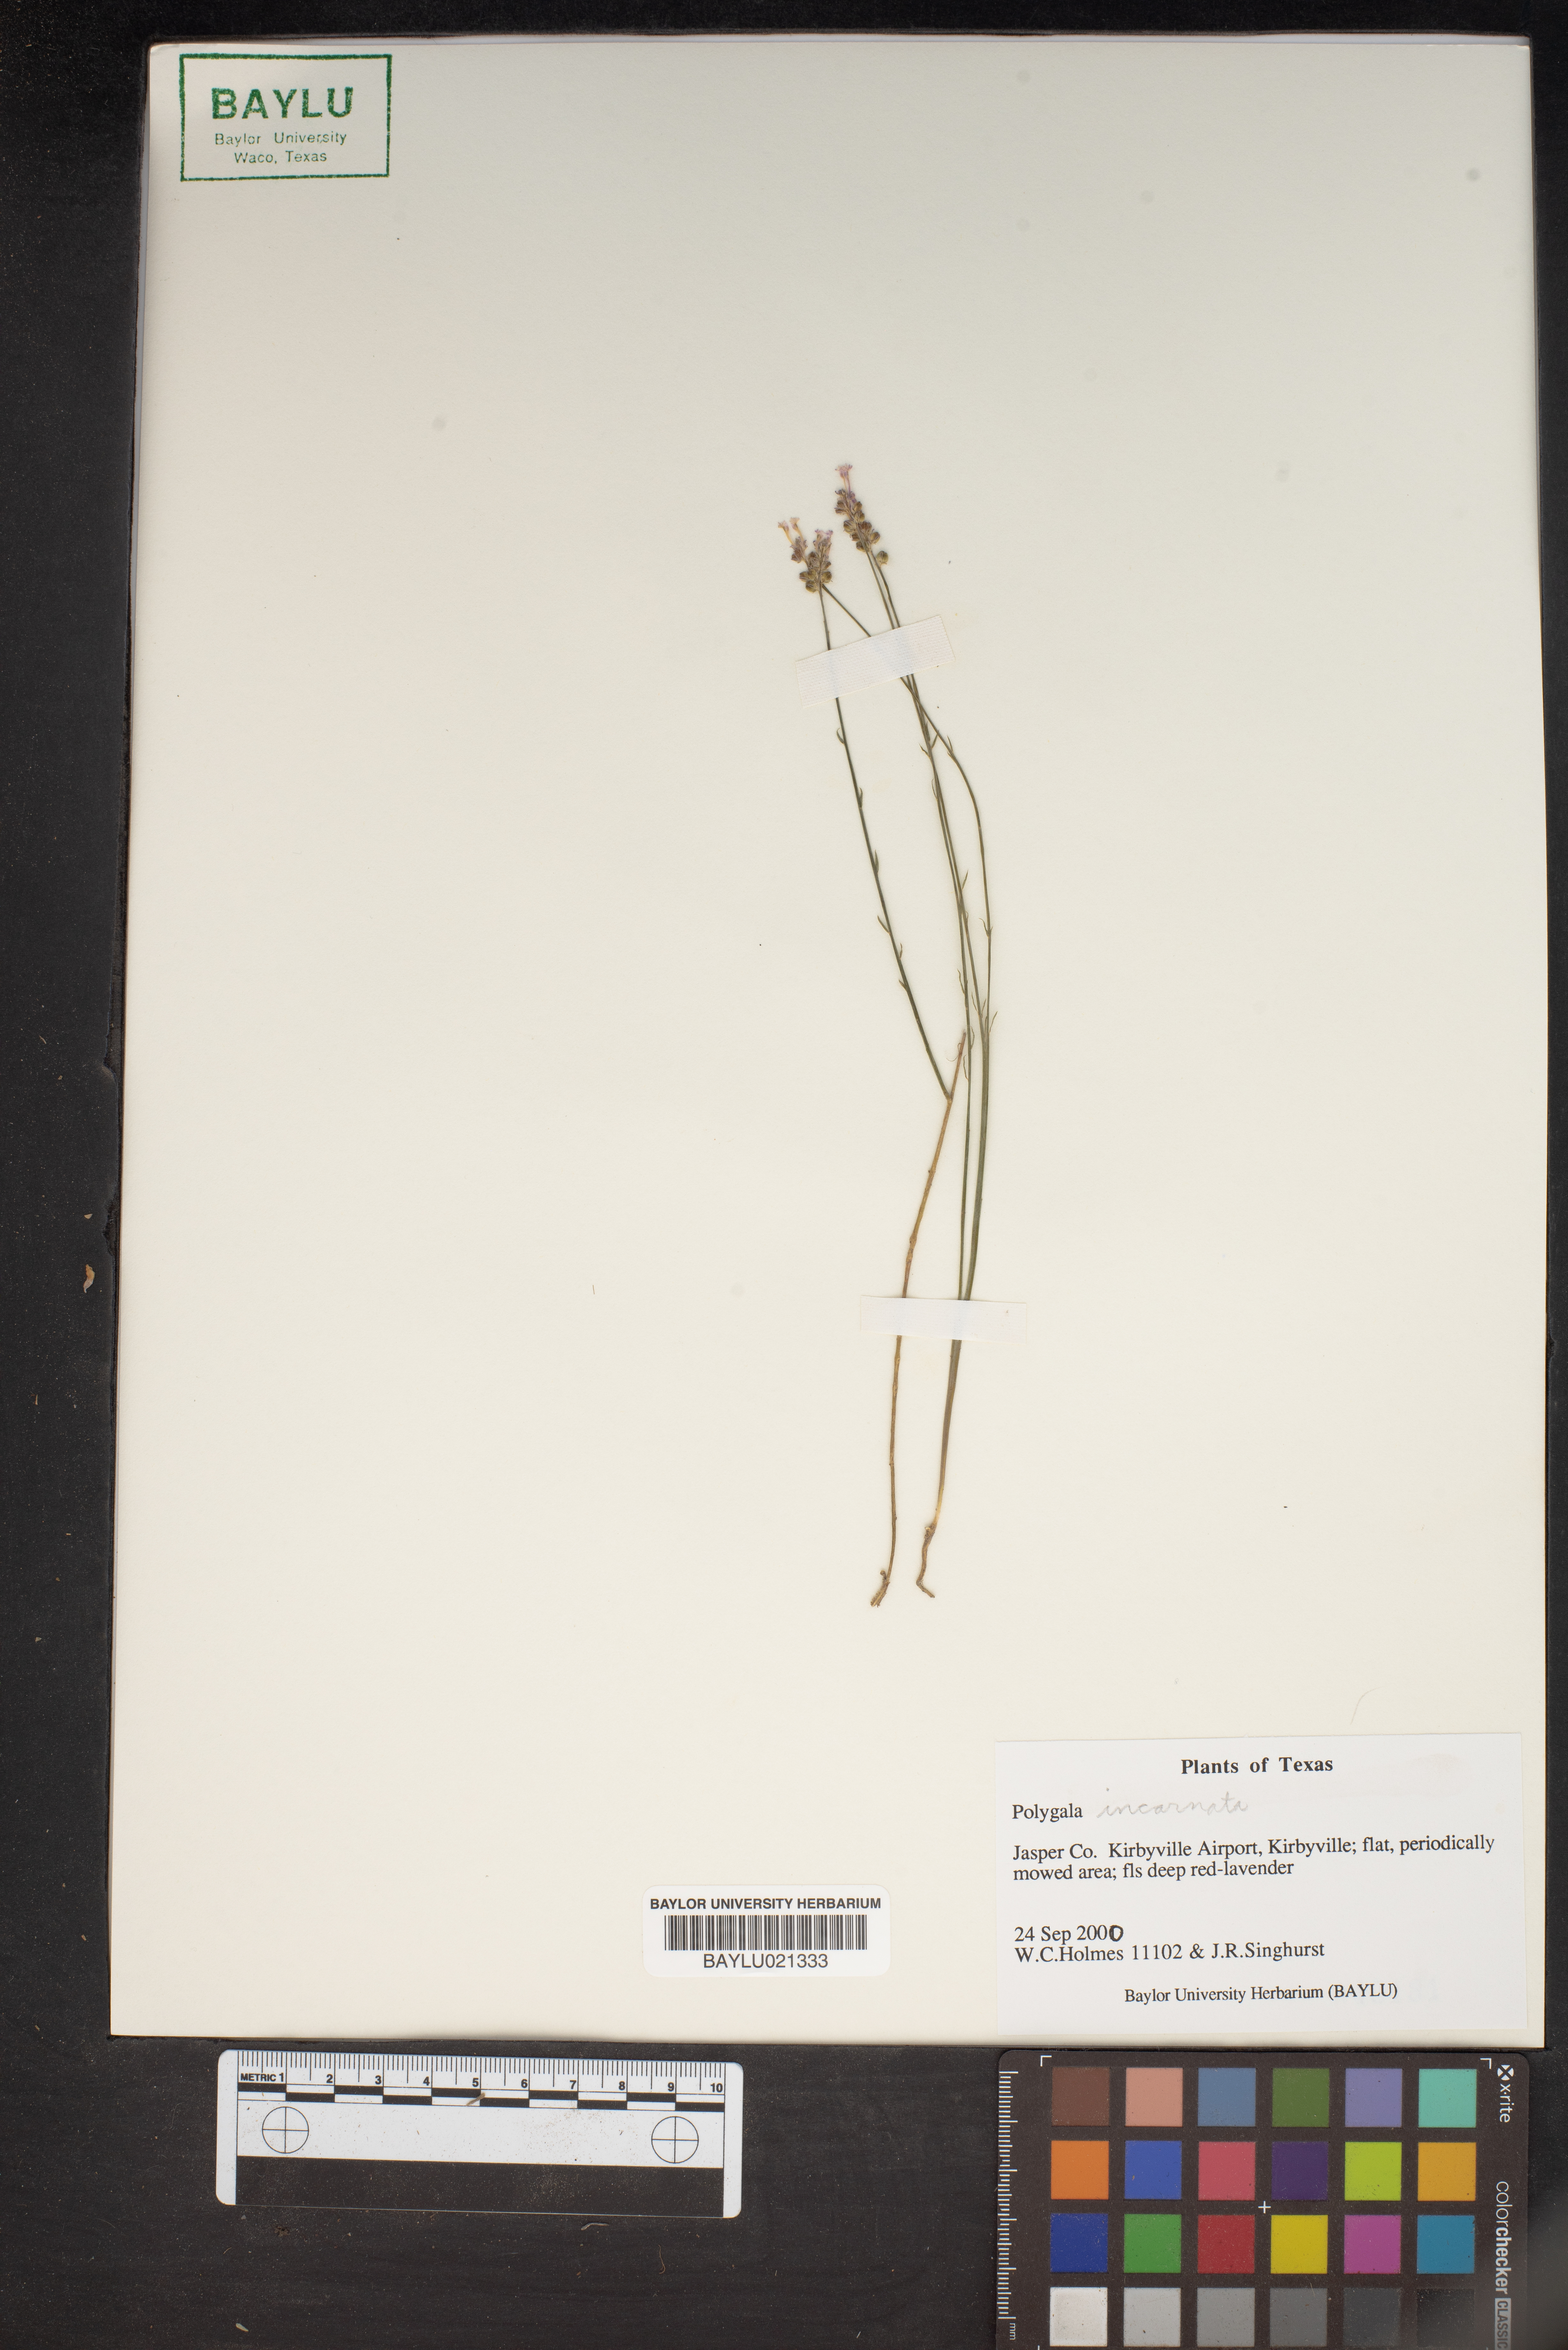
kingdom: Plantae
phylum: Tracheophyta
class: Magnoliopsida
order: Fabales
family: Polygalaceae
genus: Polygala
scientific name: Polygala incarnata
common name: Pink milkwort
